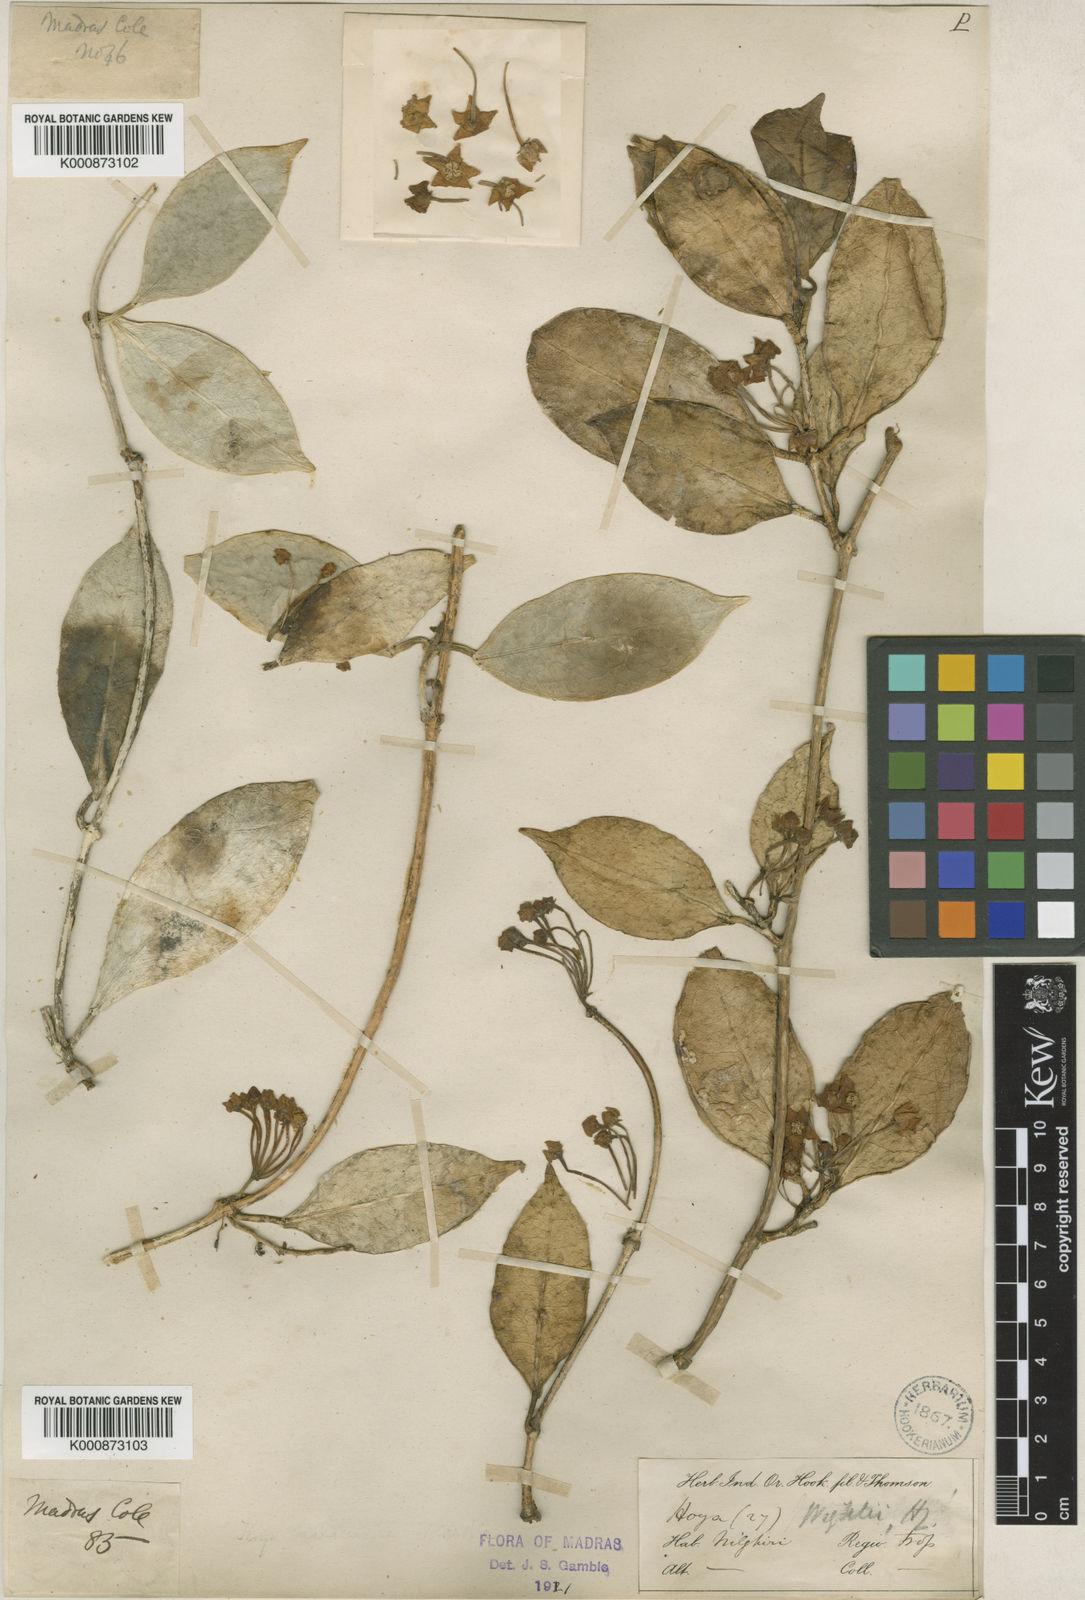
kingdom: Plantae
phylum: Tracheophyta
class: Magnoliopsida
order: Gentianales
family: Apocynaceae
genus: Hoya
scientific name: Hoya wightii
